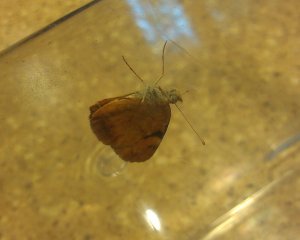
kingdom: Animalia
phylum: Arthropoda
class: Insecta
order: Lepidoptera
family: Nymphalidae
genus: Phyciodes
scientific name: Phyciodes tharos
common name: Northern Crescent
